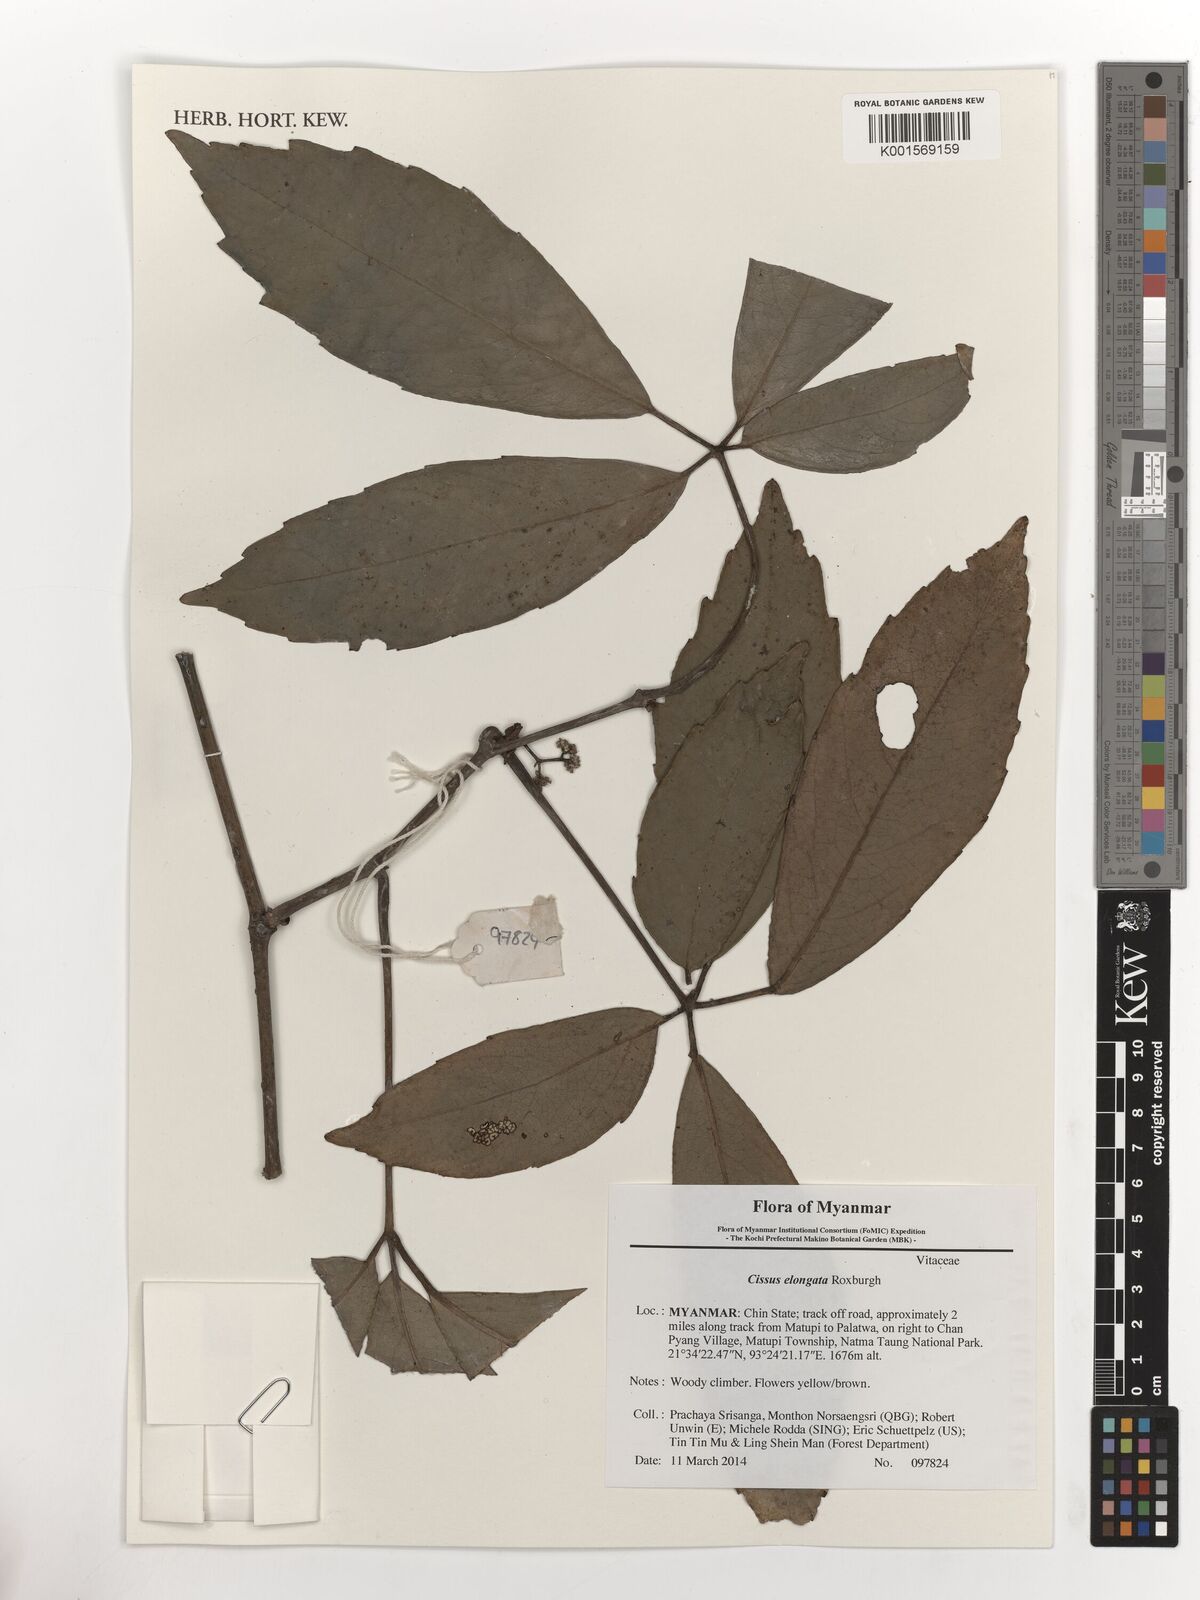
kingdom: Plantae
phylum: Tracheophyta
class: Magnoliopsida
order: Vitales
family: Vitaceae
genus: Cissus
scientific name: Cissus elongata
